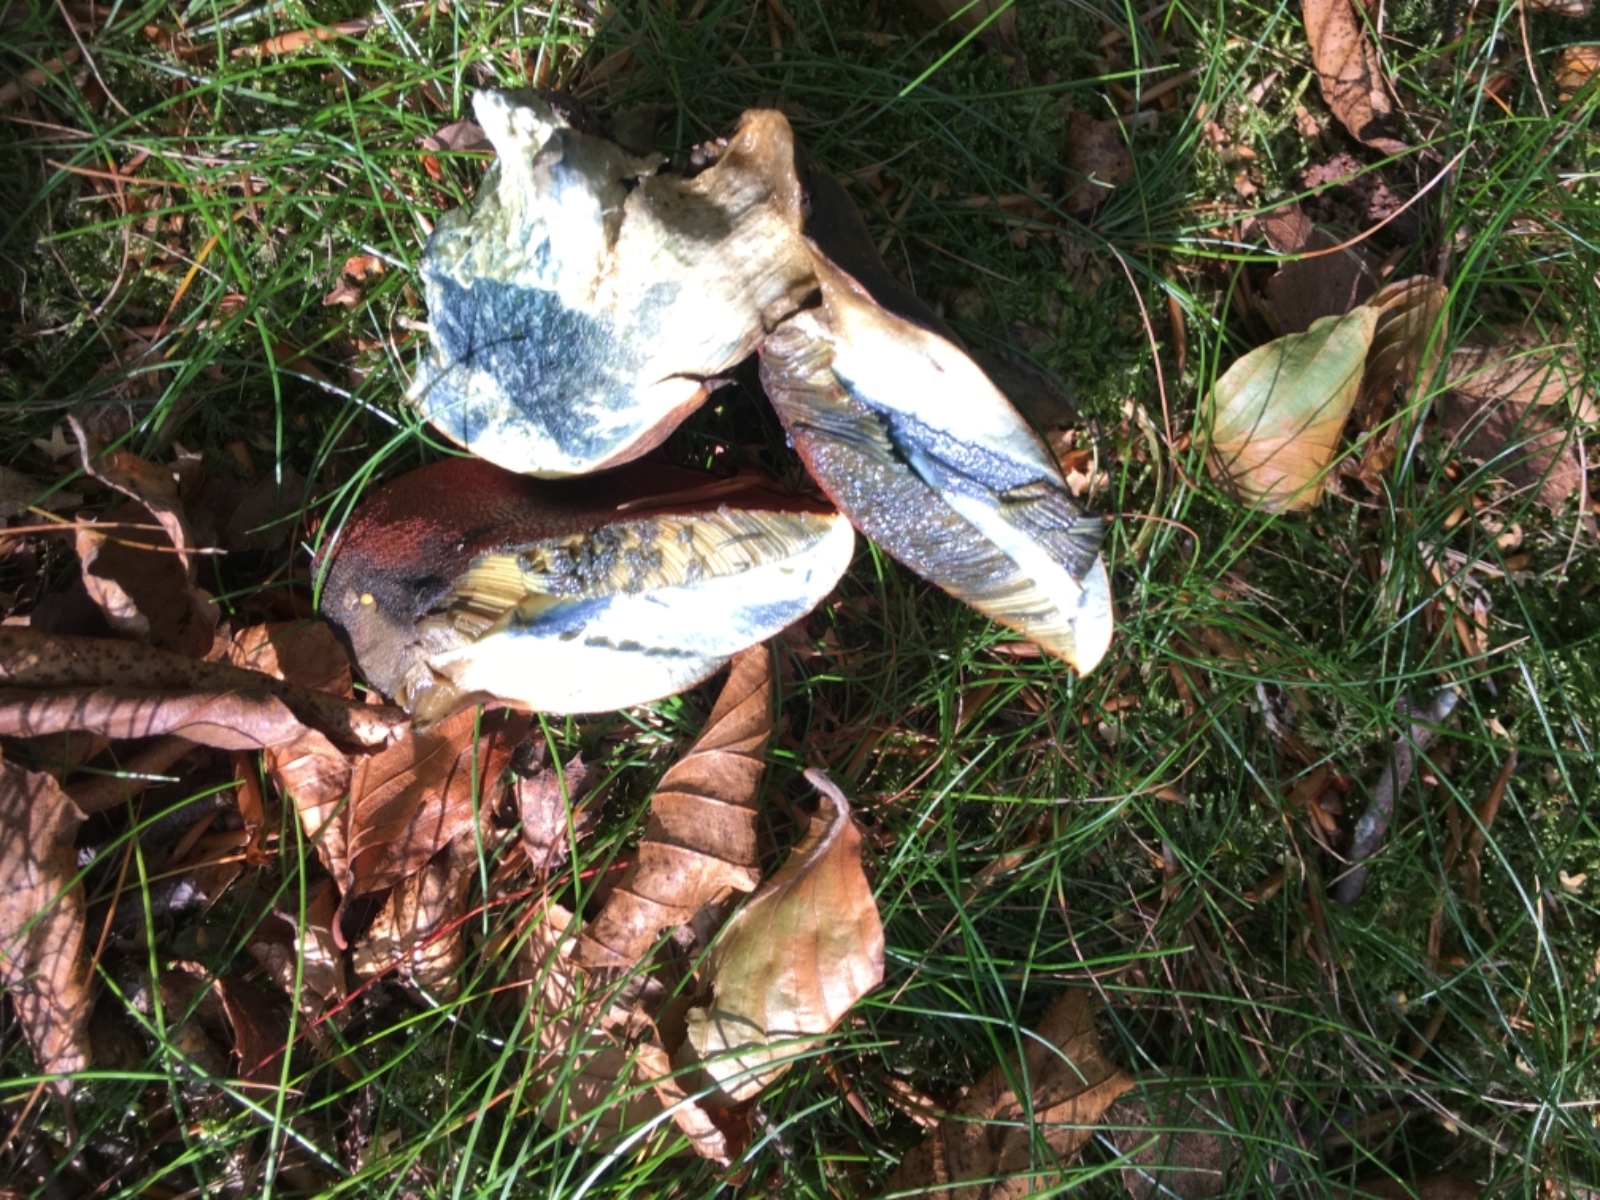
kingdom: Fungi
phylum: Basidiomycota
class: Agaricomycetes
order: Boletales
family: Boletaceae
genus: Neoboletus
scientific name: Neoboletus erythropus
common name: punktstokket indigorørhat
